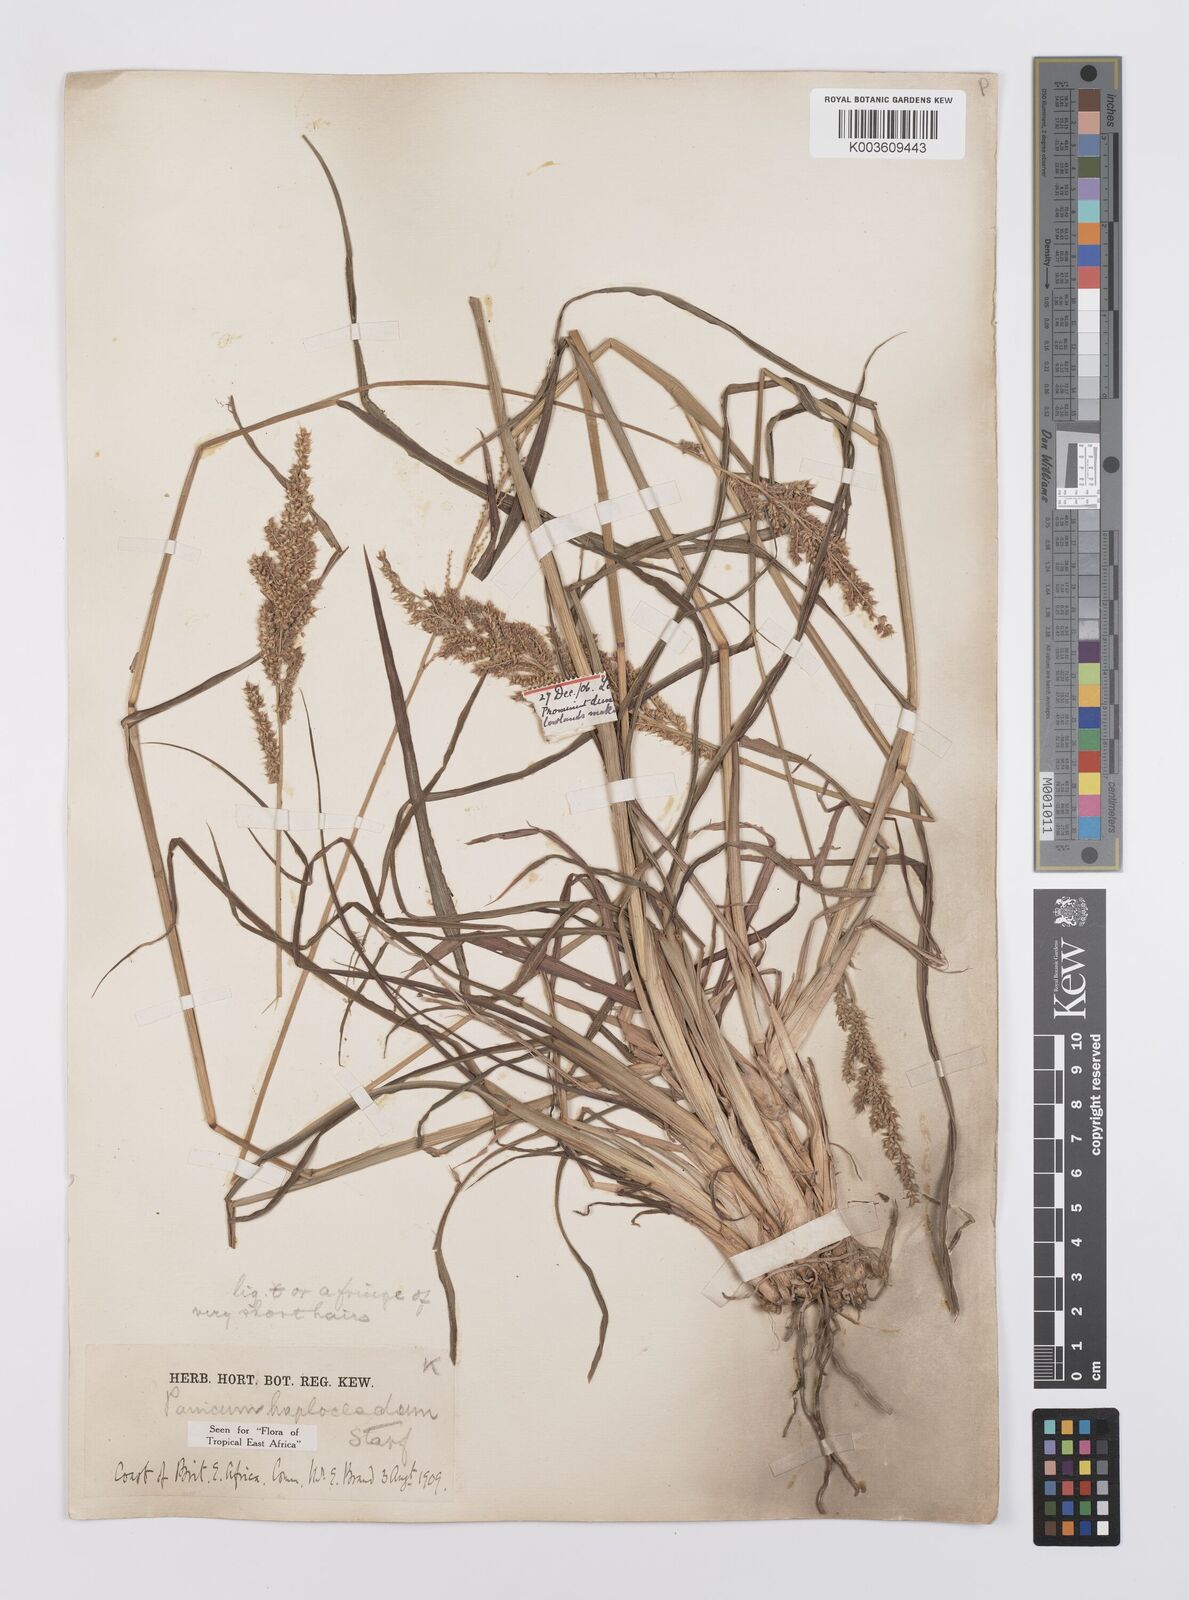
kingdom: Plantae
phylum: Tracheophyta
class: Liliopsida
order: Poales
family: Poaceae
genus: Echinochloa
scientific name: Echinochloa haploclada
